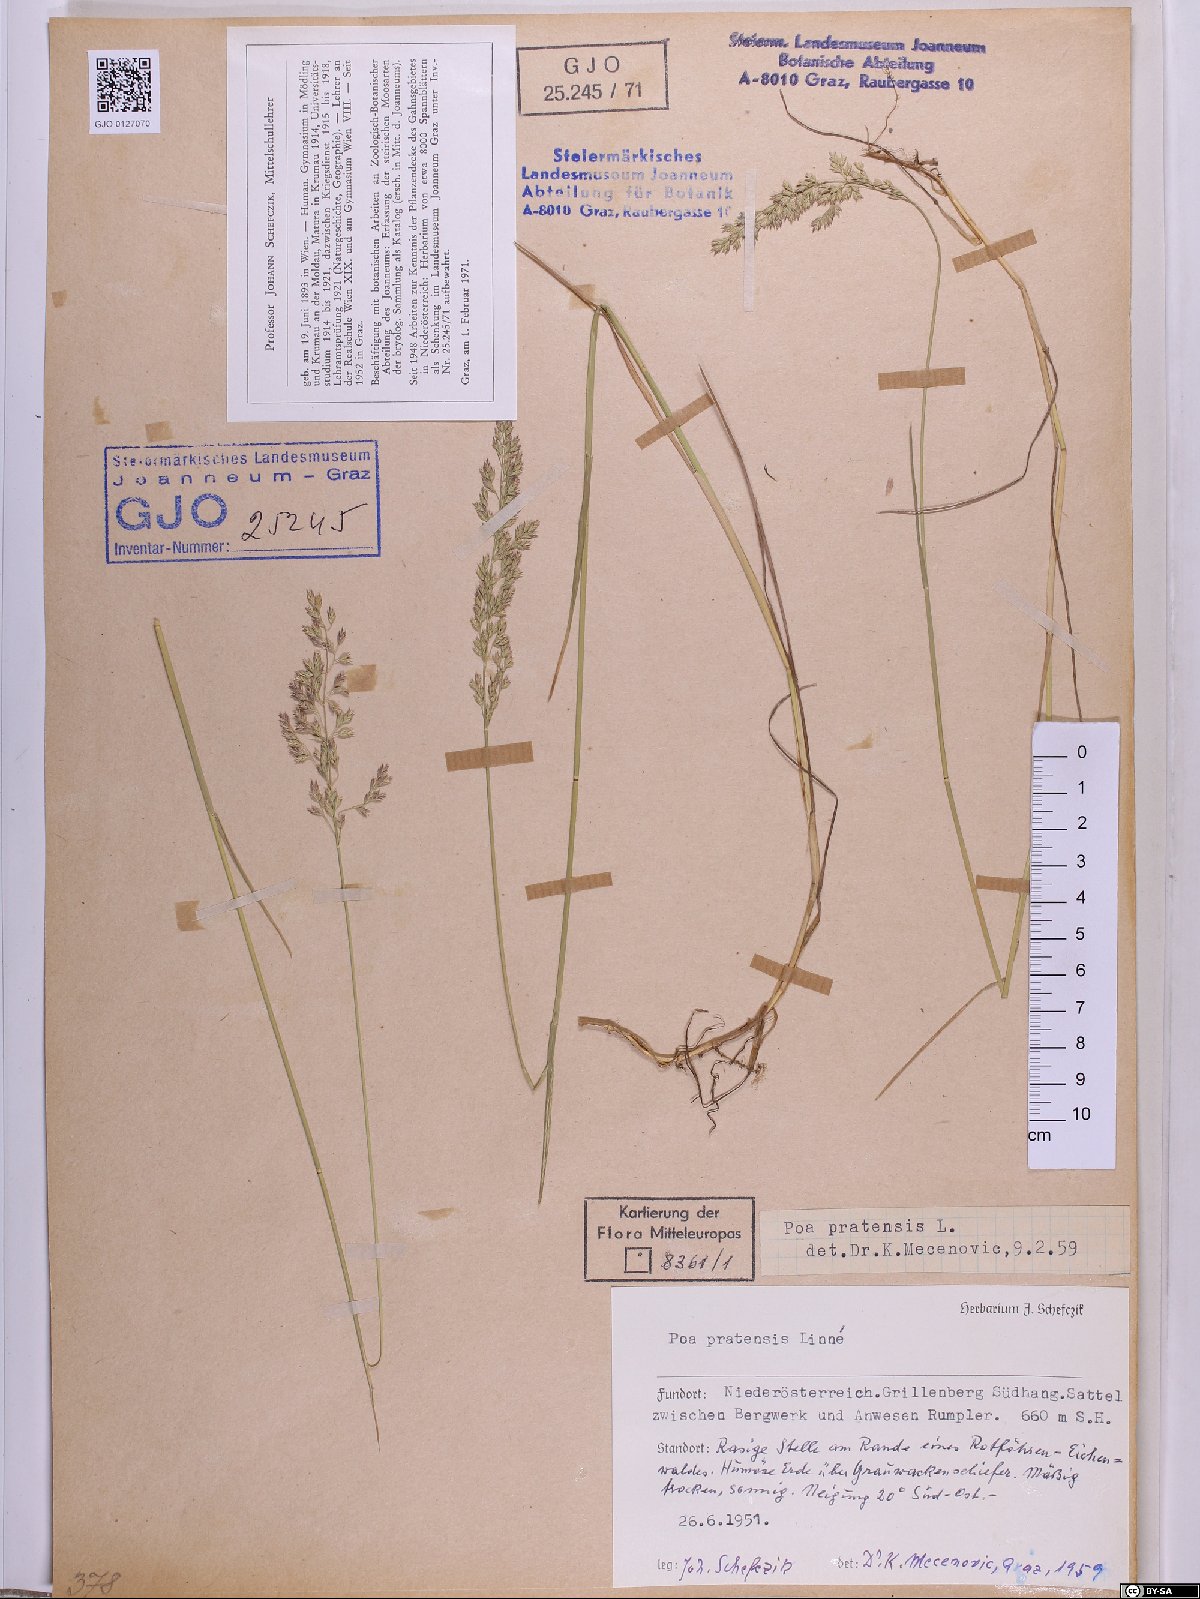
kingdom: Plantae
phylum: Tracheophyta
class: Liliopsida
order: Poales
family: Poaceae
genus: Poa
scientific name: Poa pratensis
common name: Kentucky bluegrass
